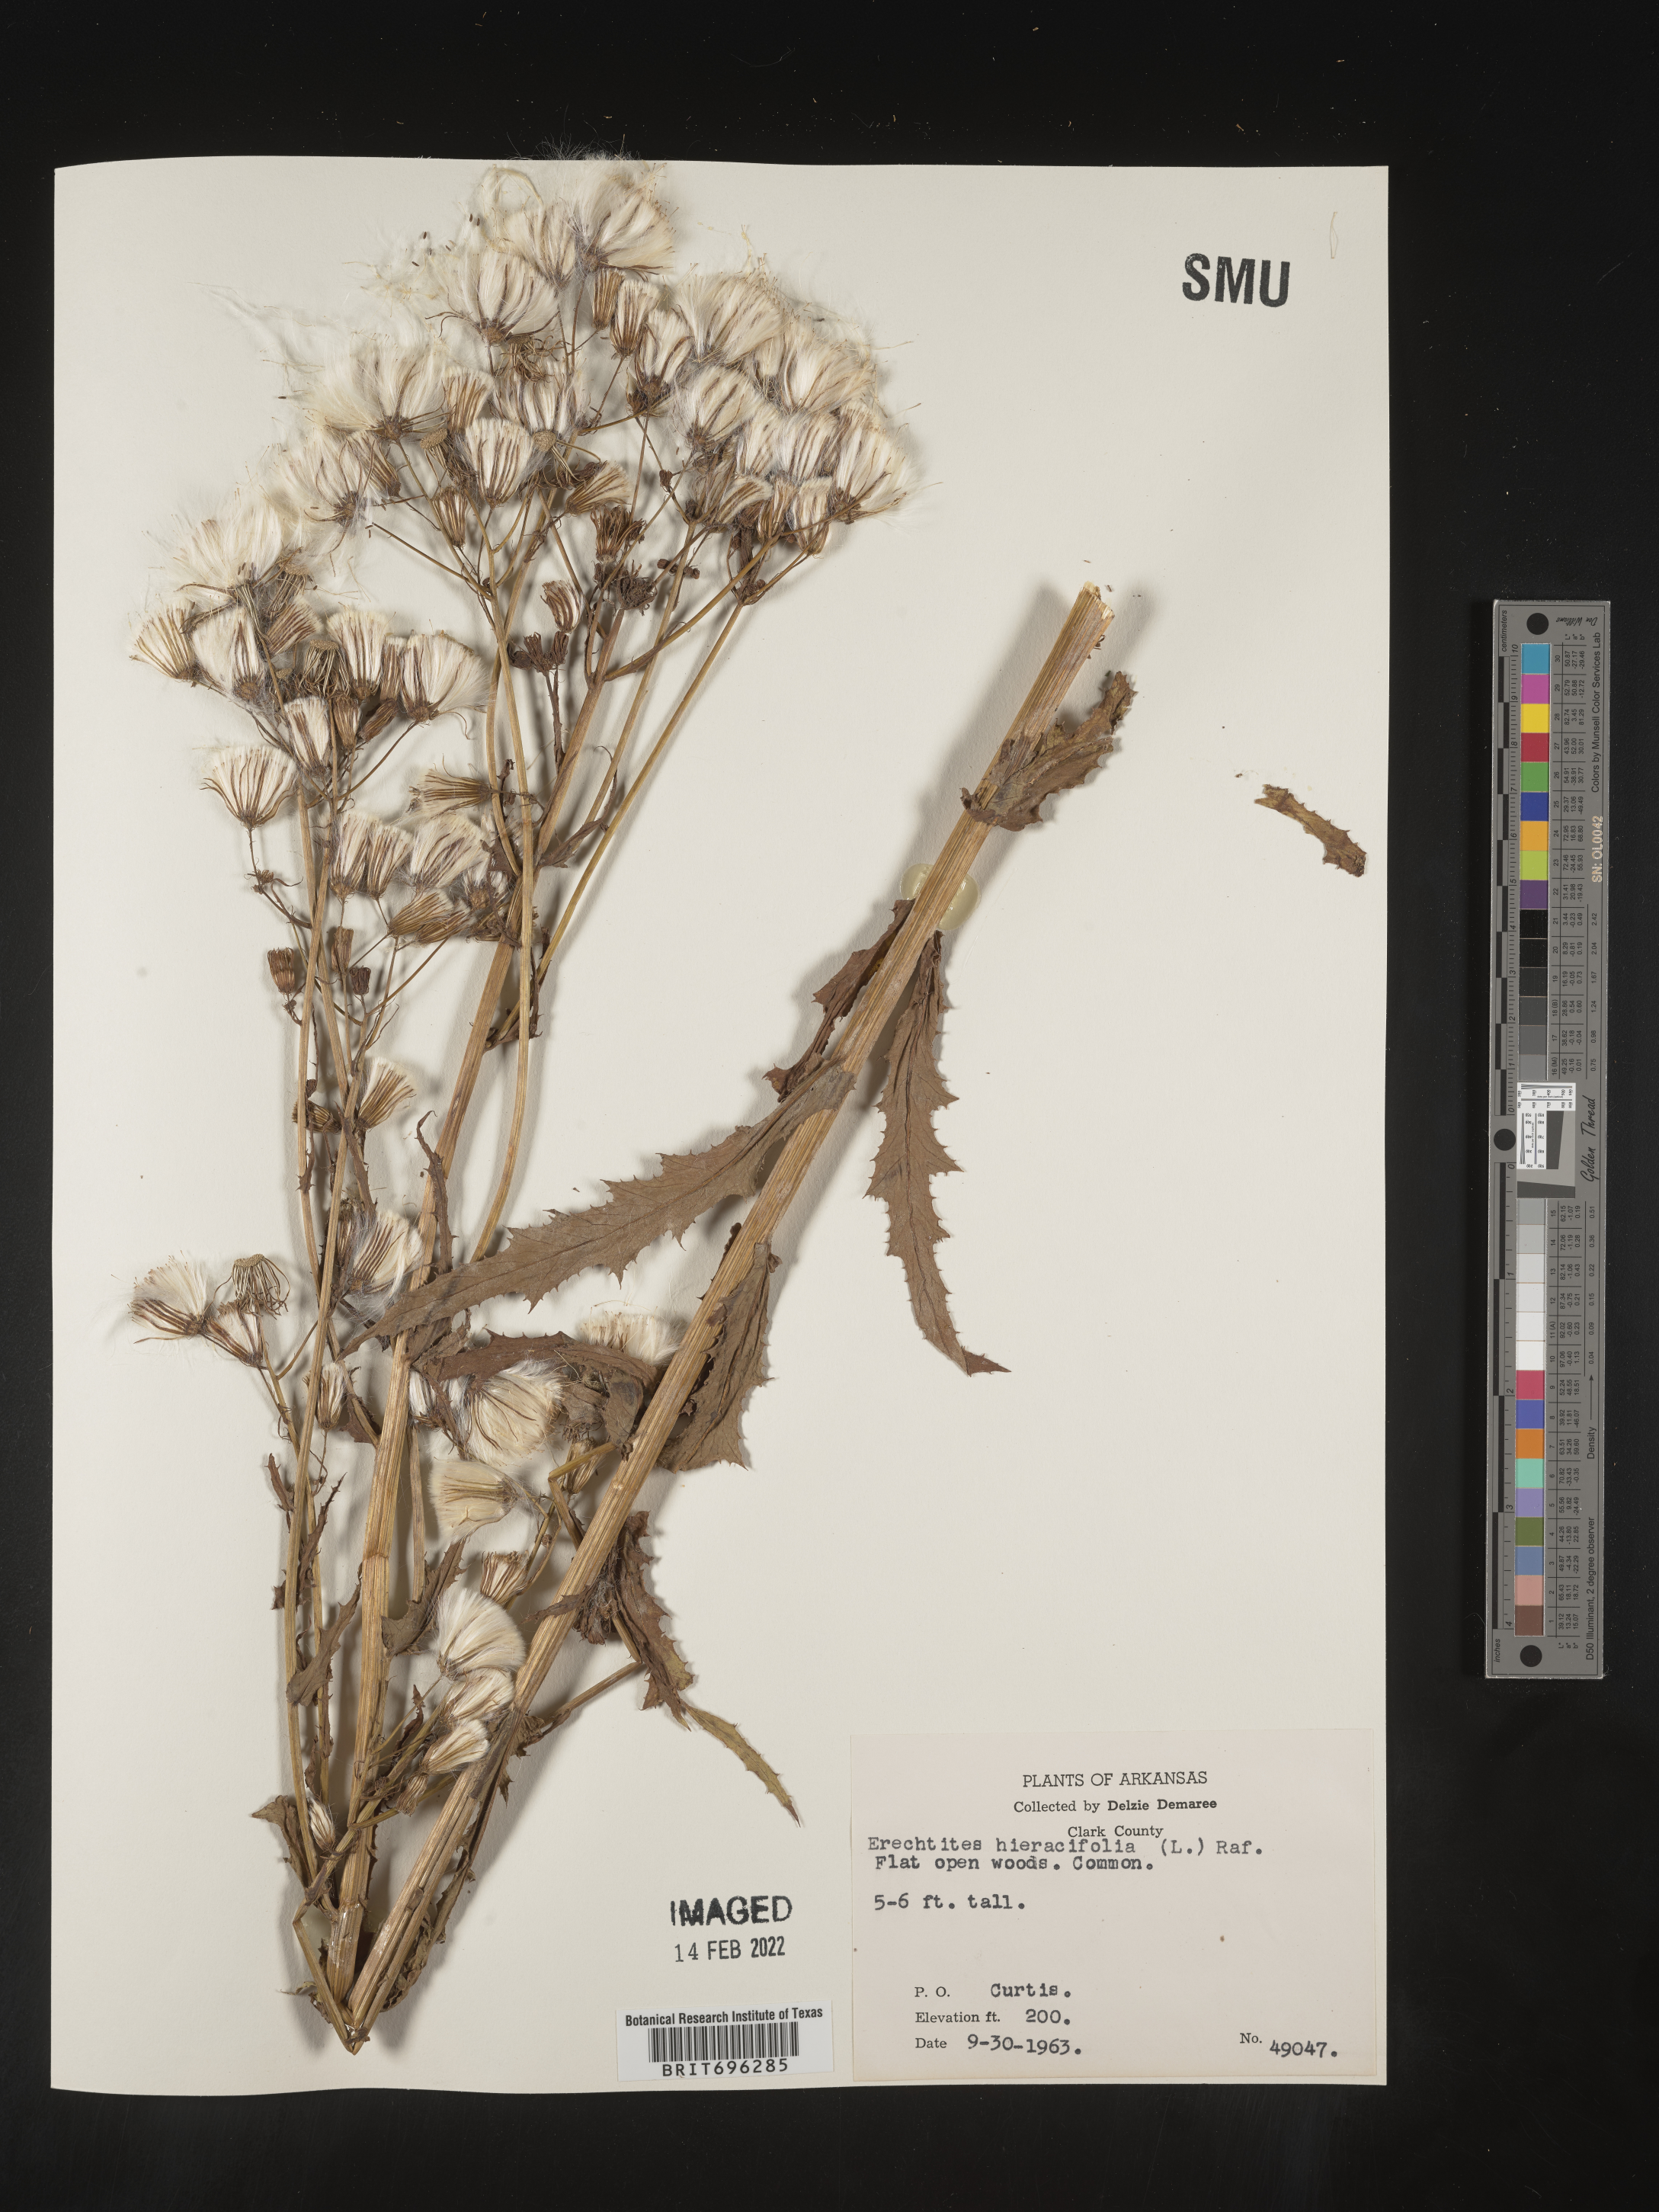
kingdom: Plantae
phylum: Tracheophyta
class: Magnoliopsida
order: Asterales
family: Asteraceae
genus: Erechtites
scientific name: Erechtites hieraciifolius
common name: American burnweed
